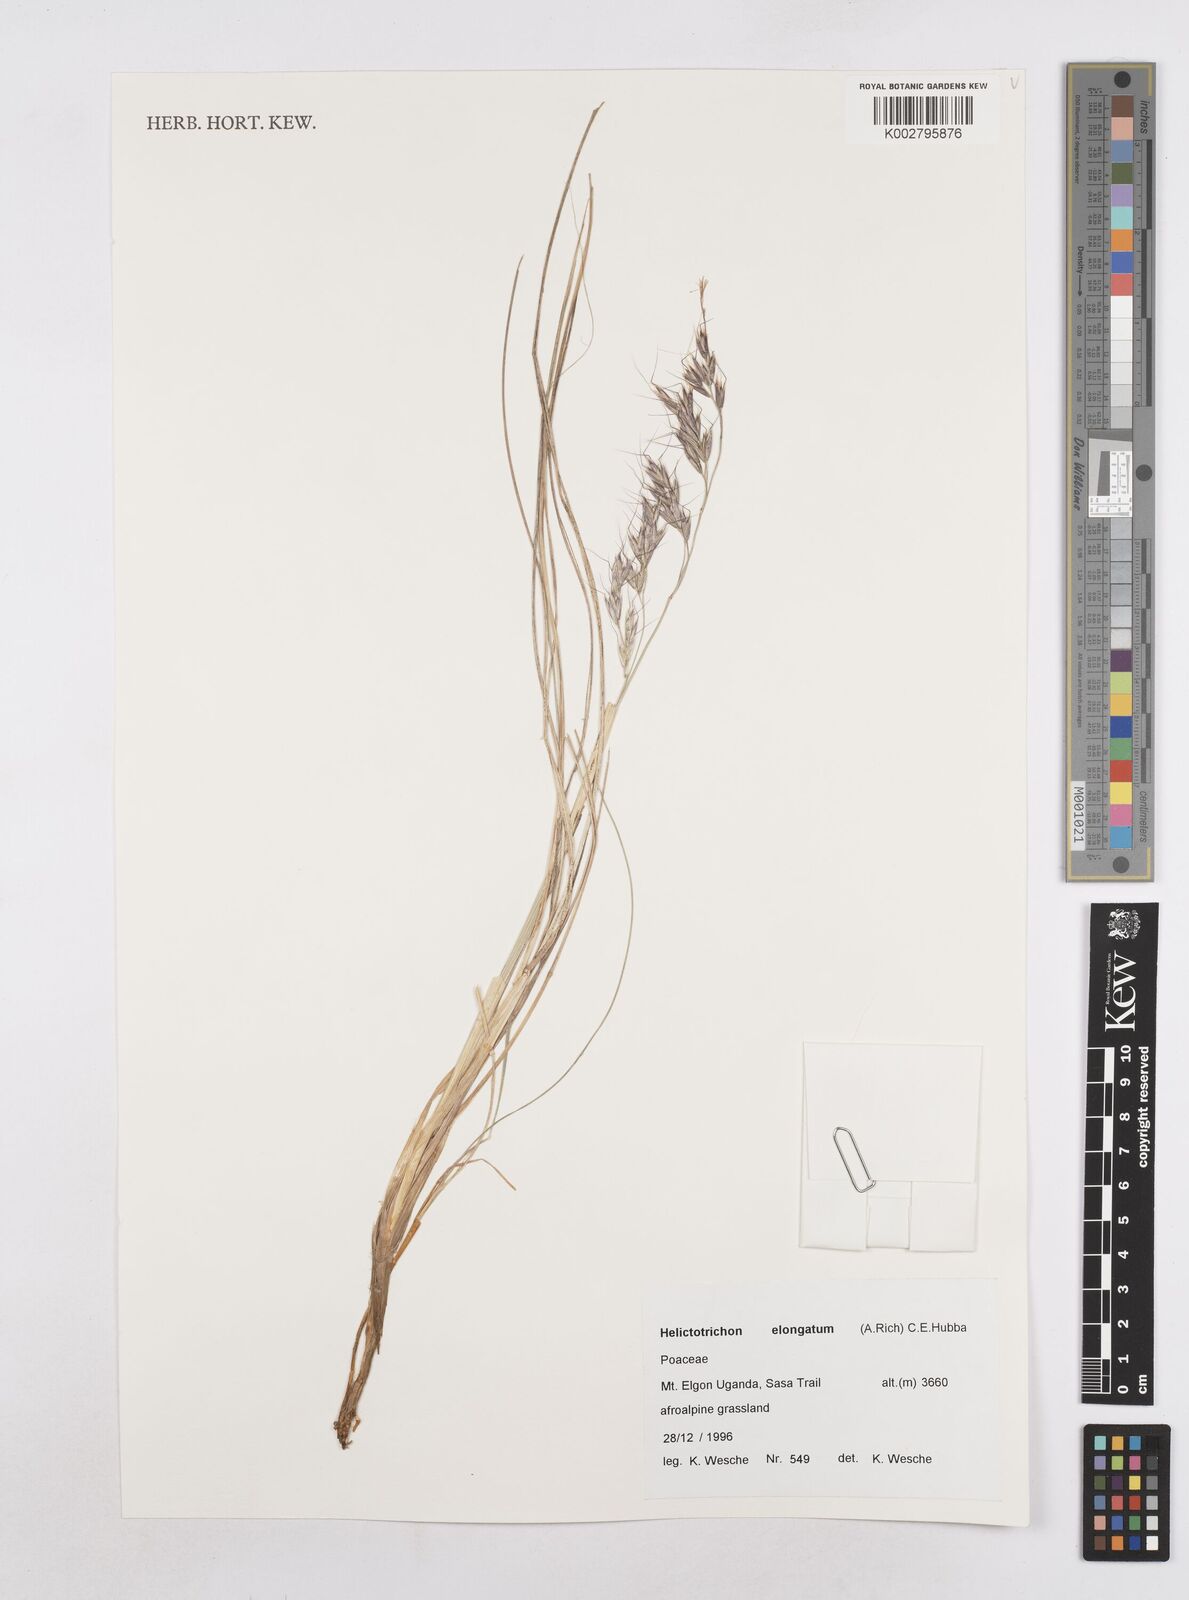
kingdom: Plantae
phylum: Tracheophyta
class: Liliopsida
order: Poales
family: Poaceae
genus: Trisetopsis
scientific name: Trisetopsis elongata
